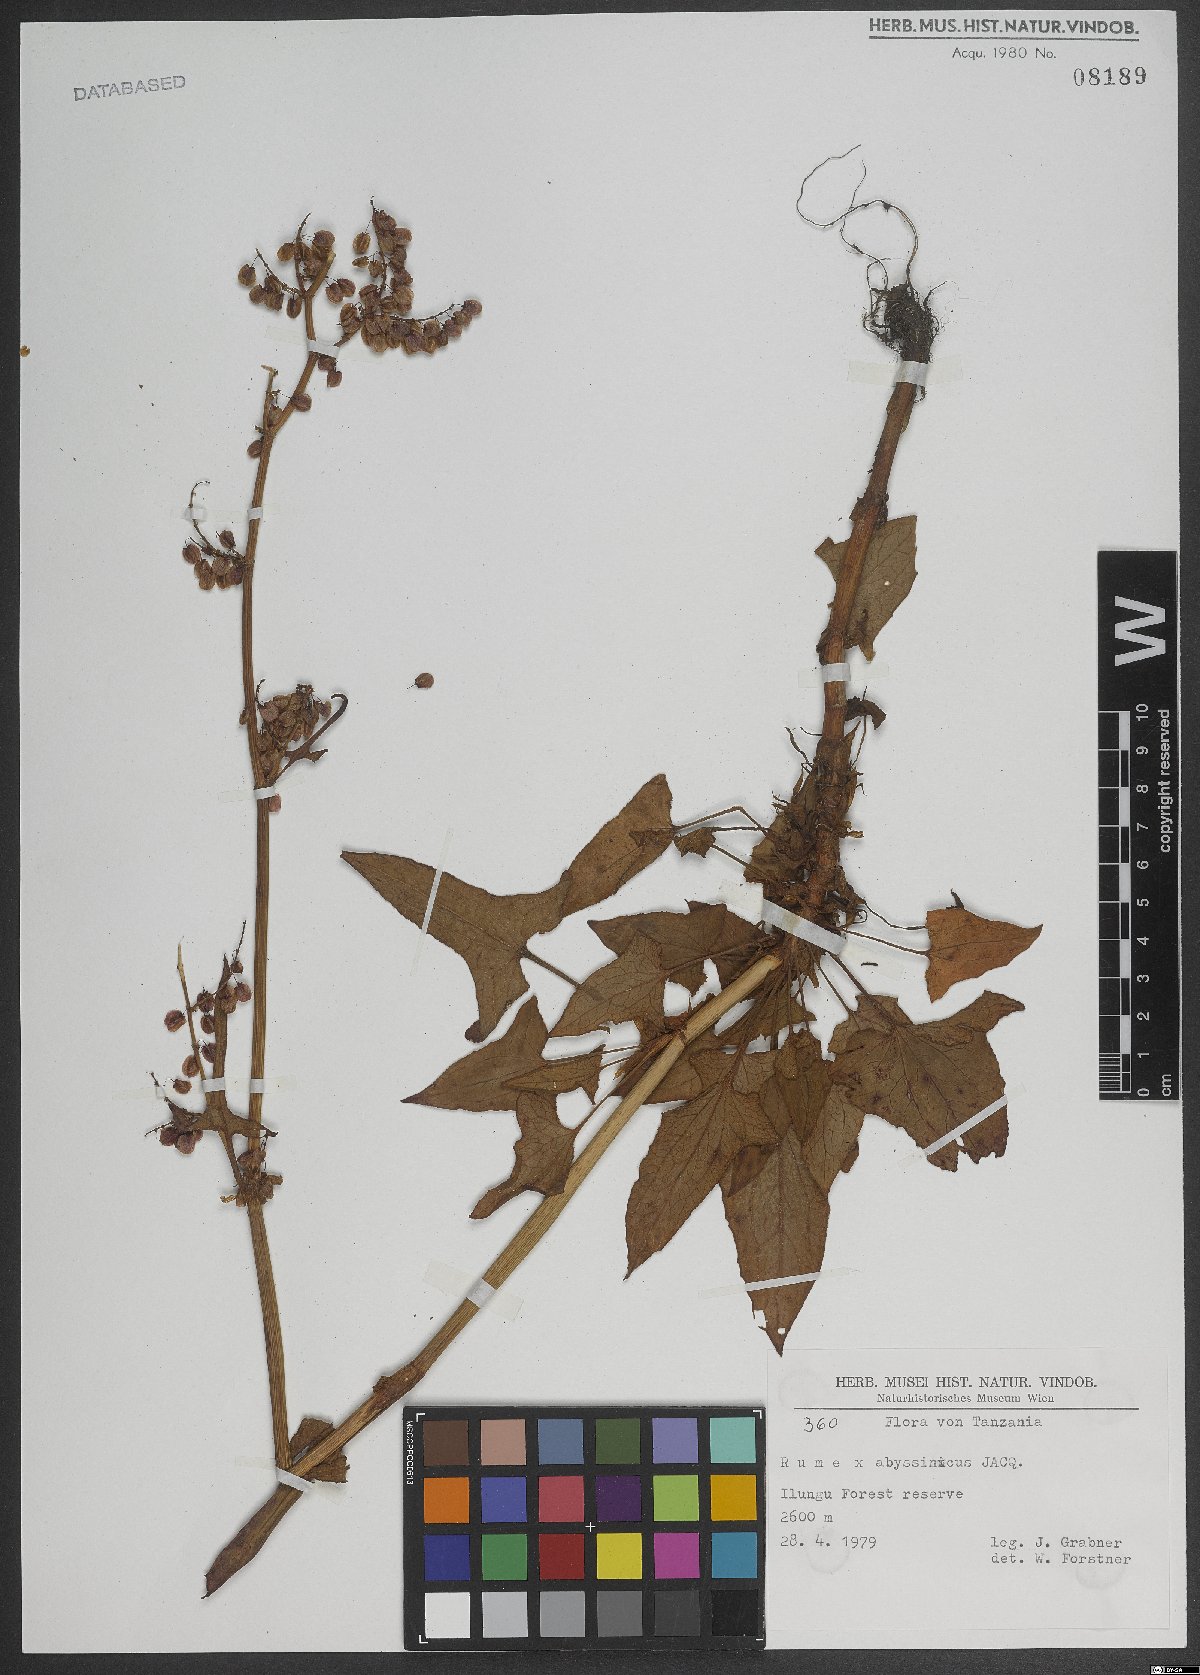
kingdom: Plantae
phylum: Tracheophyta
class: Magnoliopsida
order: Caryophyllales
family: Polygonaceae
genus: Rumex
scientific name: Rumex abyssinicus
